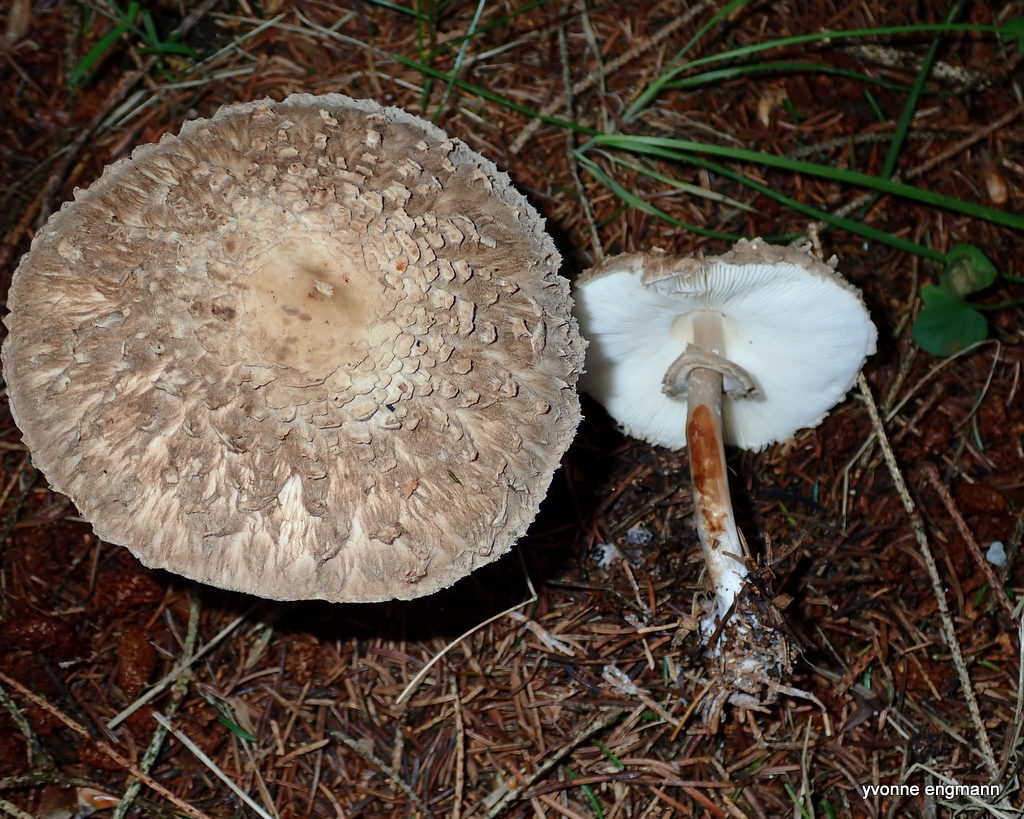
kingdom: Fungi
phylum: Basidiomycota
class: Agaricomycetes
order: Agaricales
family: Agaricaceae
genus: Chlorophyllum
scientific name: Chlorophyllum olivieri
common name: almindelig rabarberhat
